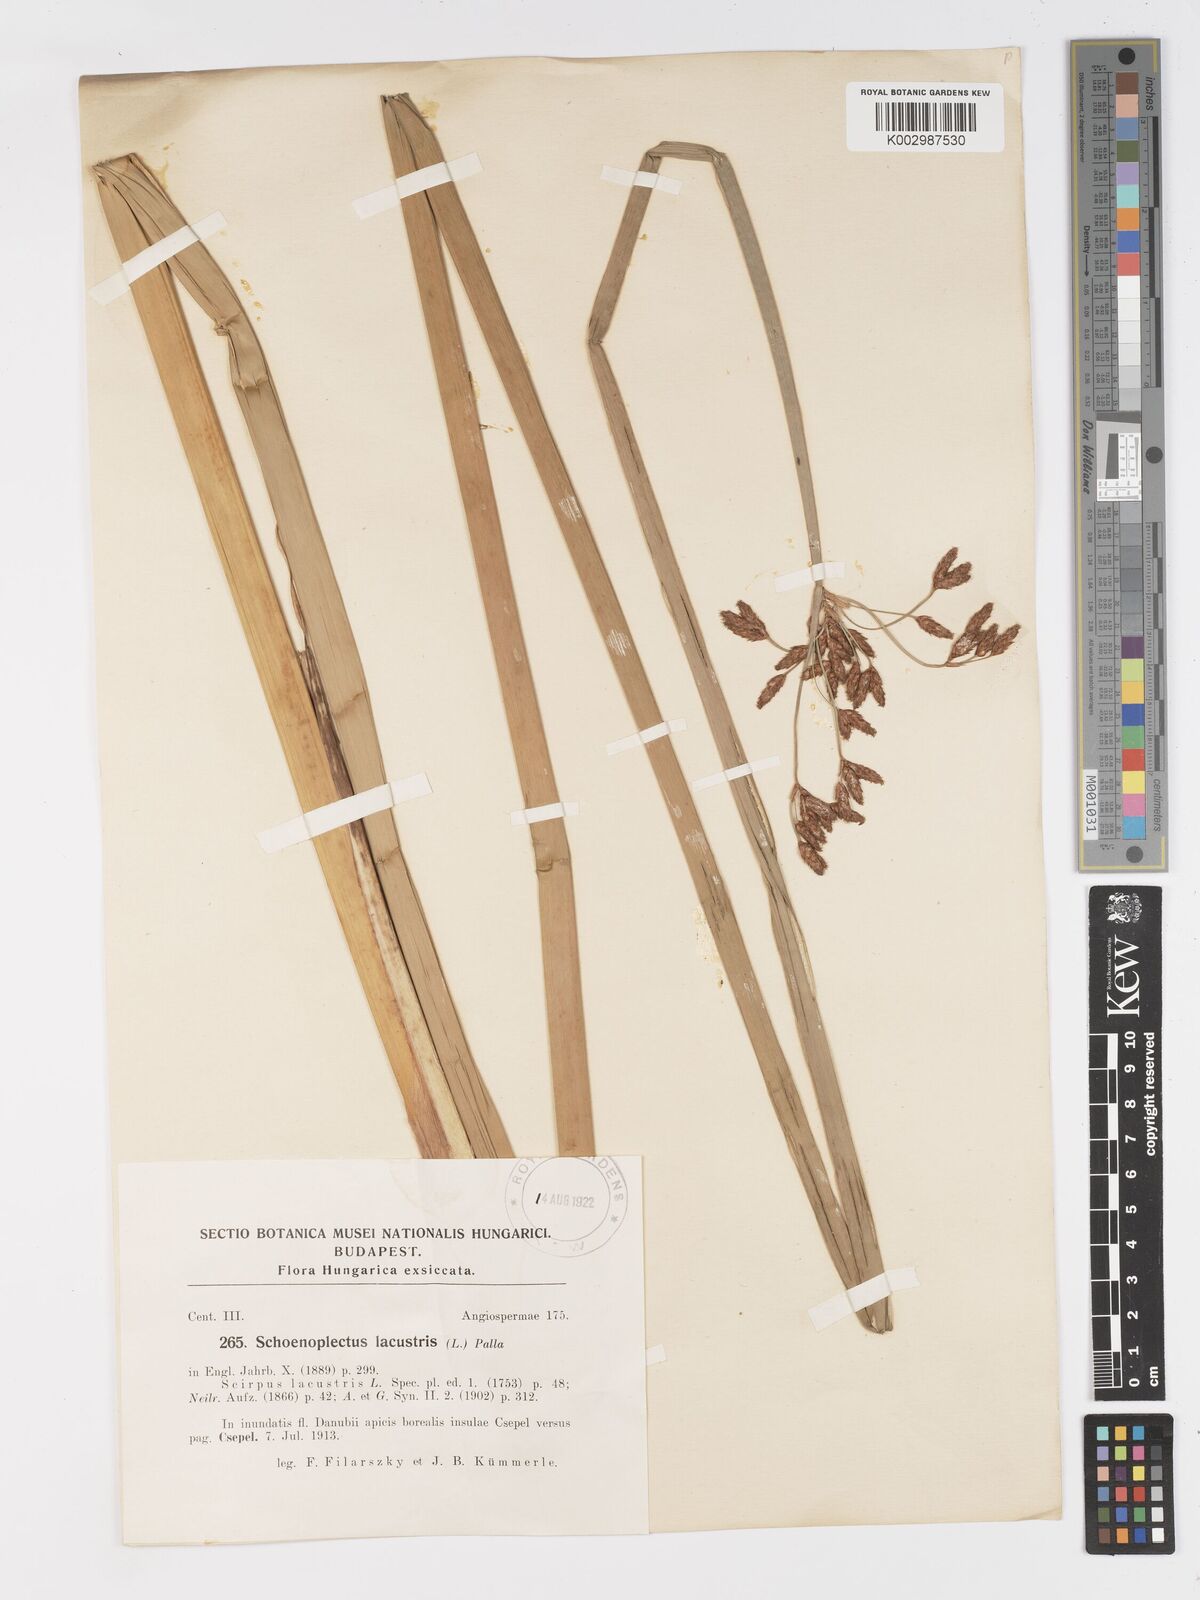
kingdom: Plantae
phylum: Tracheophyta
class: Liliopsida
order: Poales
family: Cyperaceae
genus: Schoenoplectus
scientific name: Schoenoplectus lacustris
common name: Common club-rush
